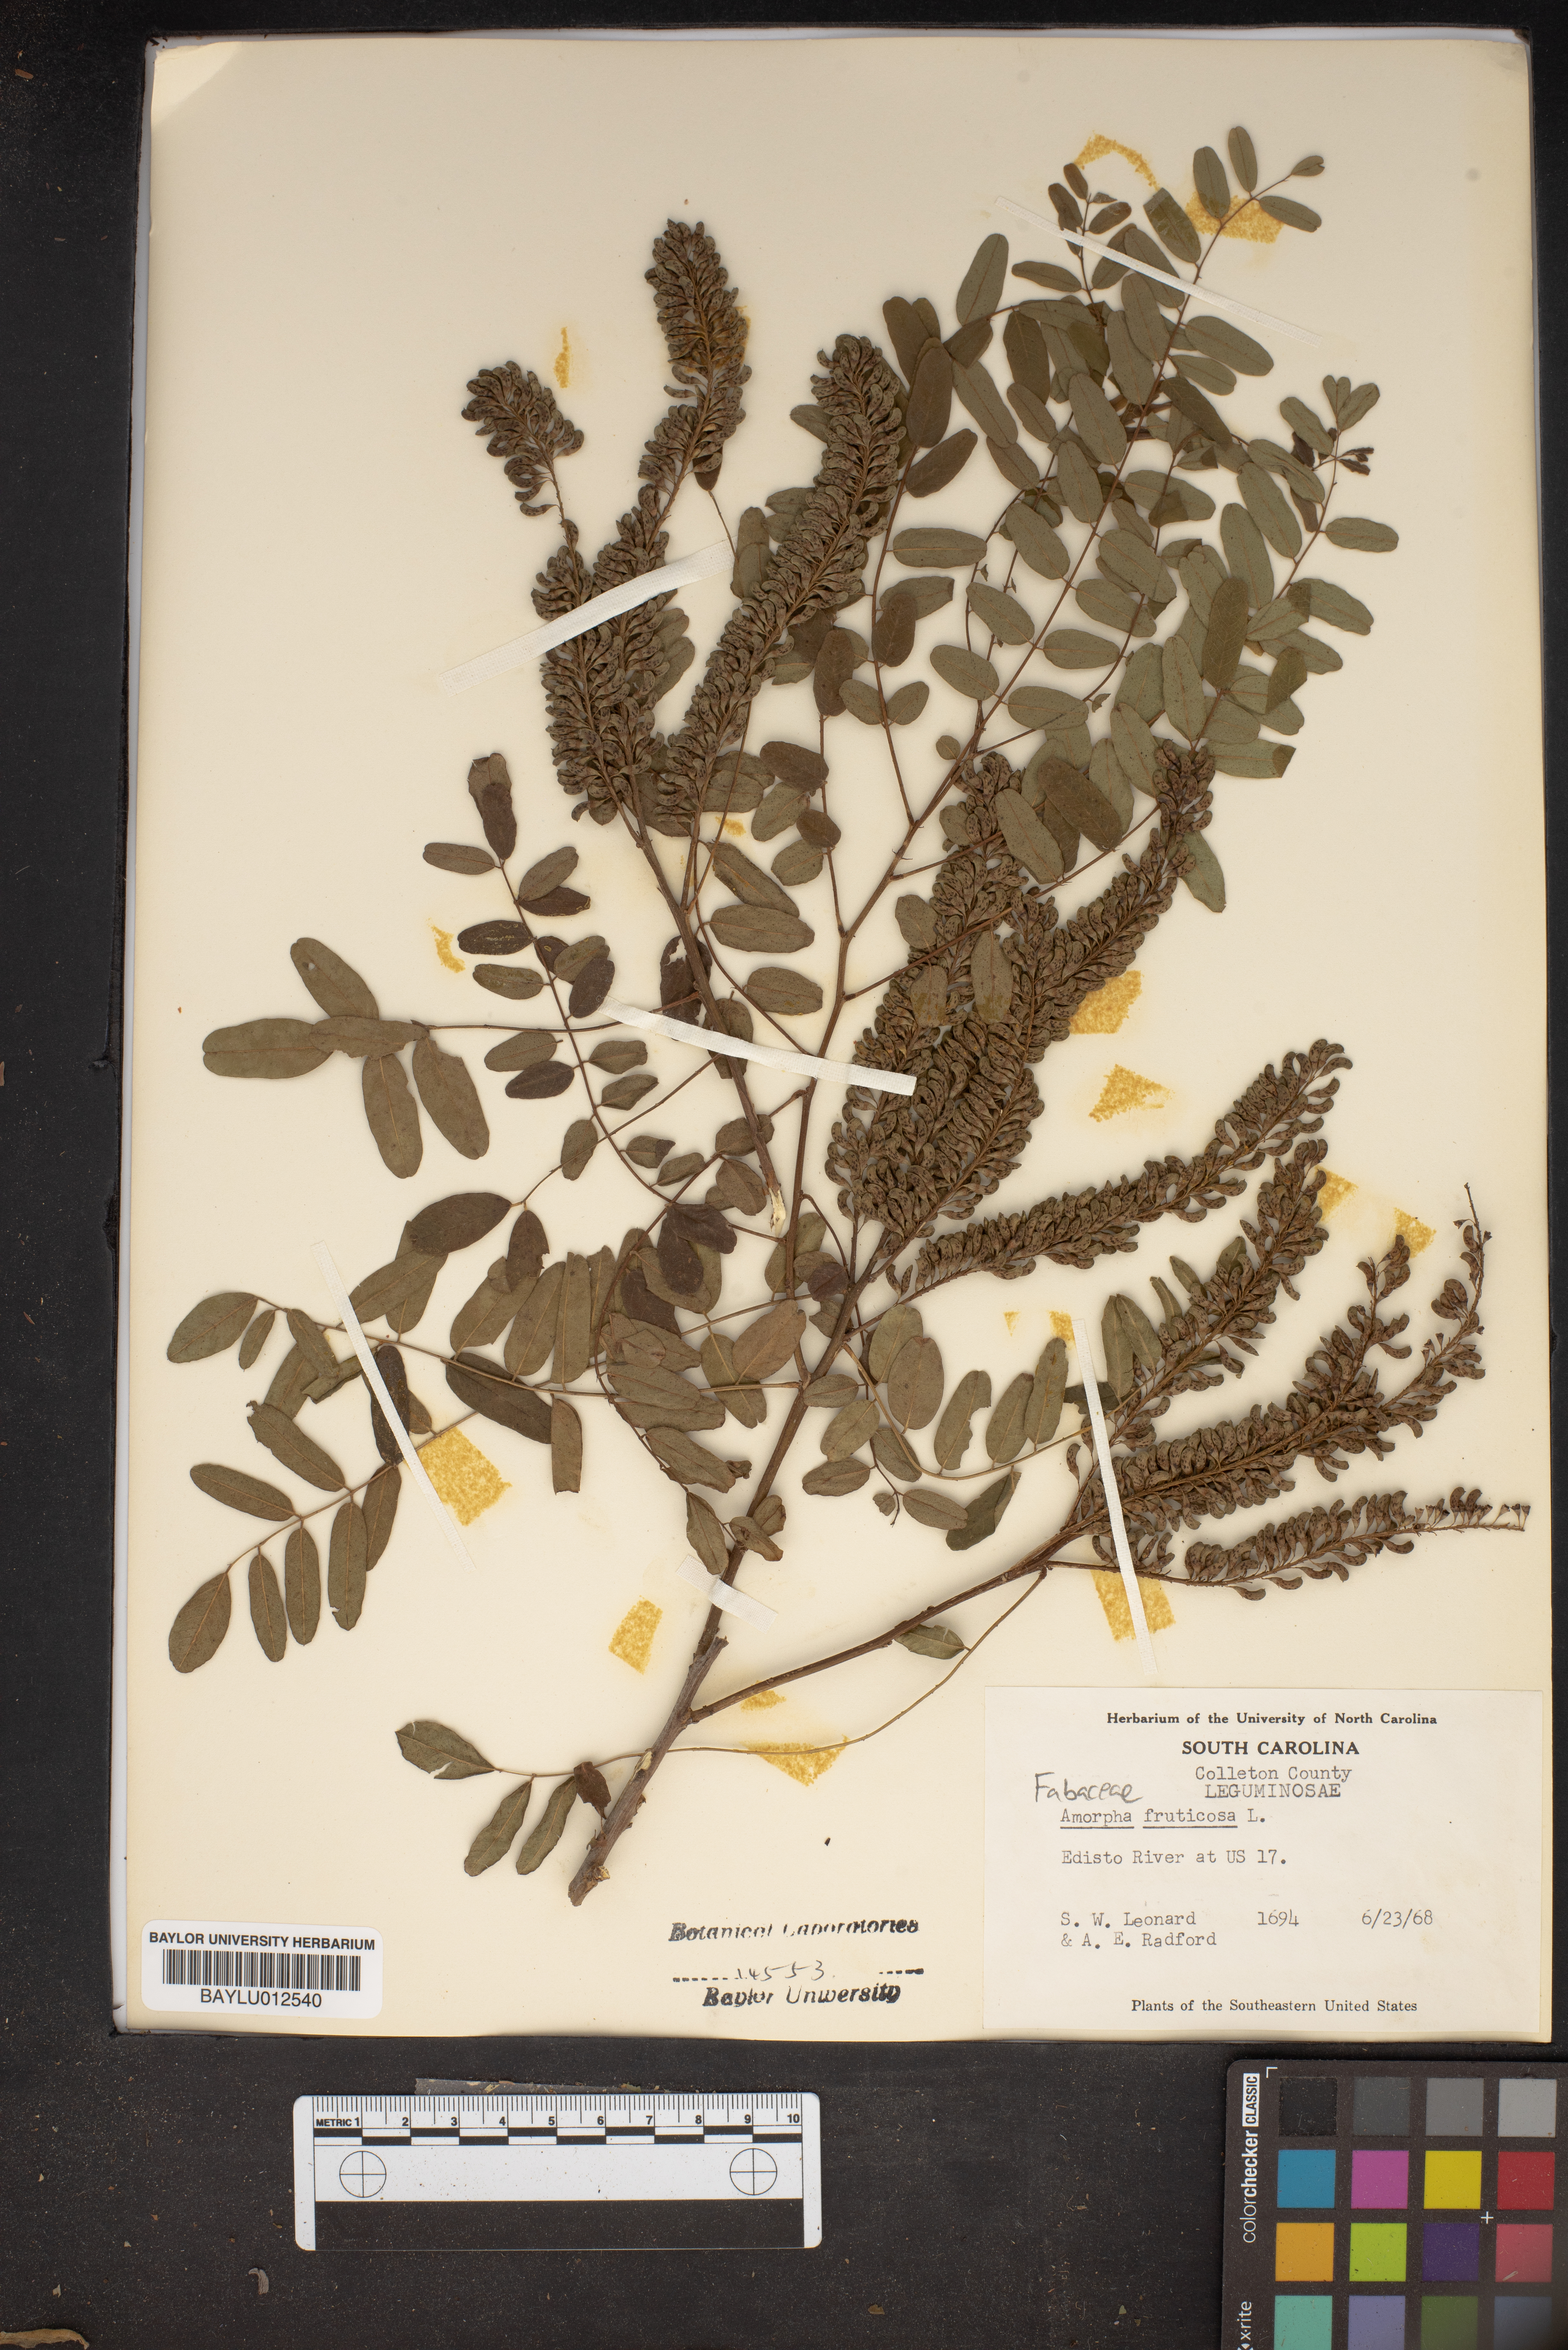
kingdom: Plantae
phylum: Tracheophyta
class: Magnoliopsida
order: Fabales
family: Fabaceae
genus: Amorpha
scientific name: Amorpha fruticosa
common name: False indigo
